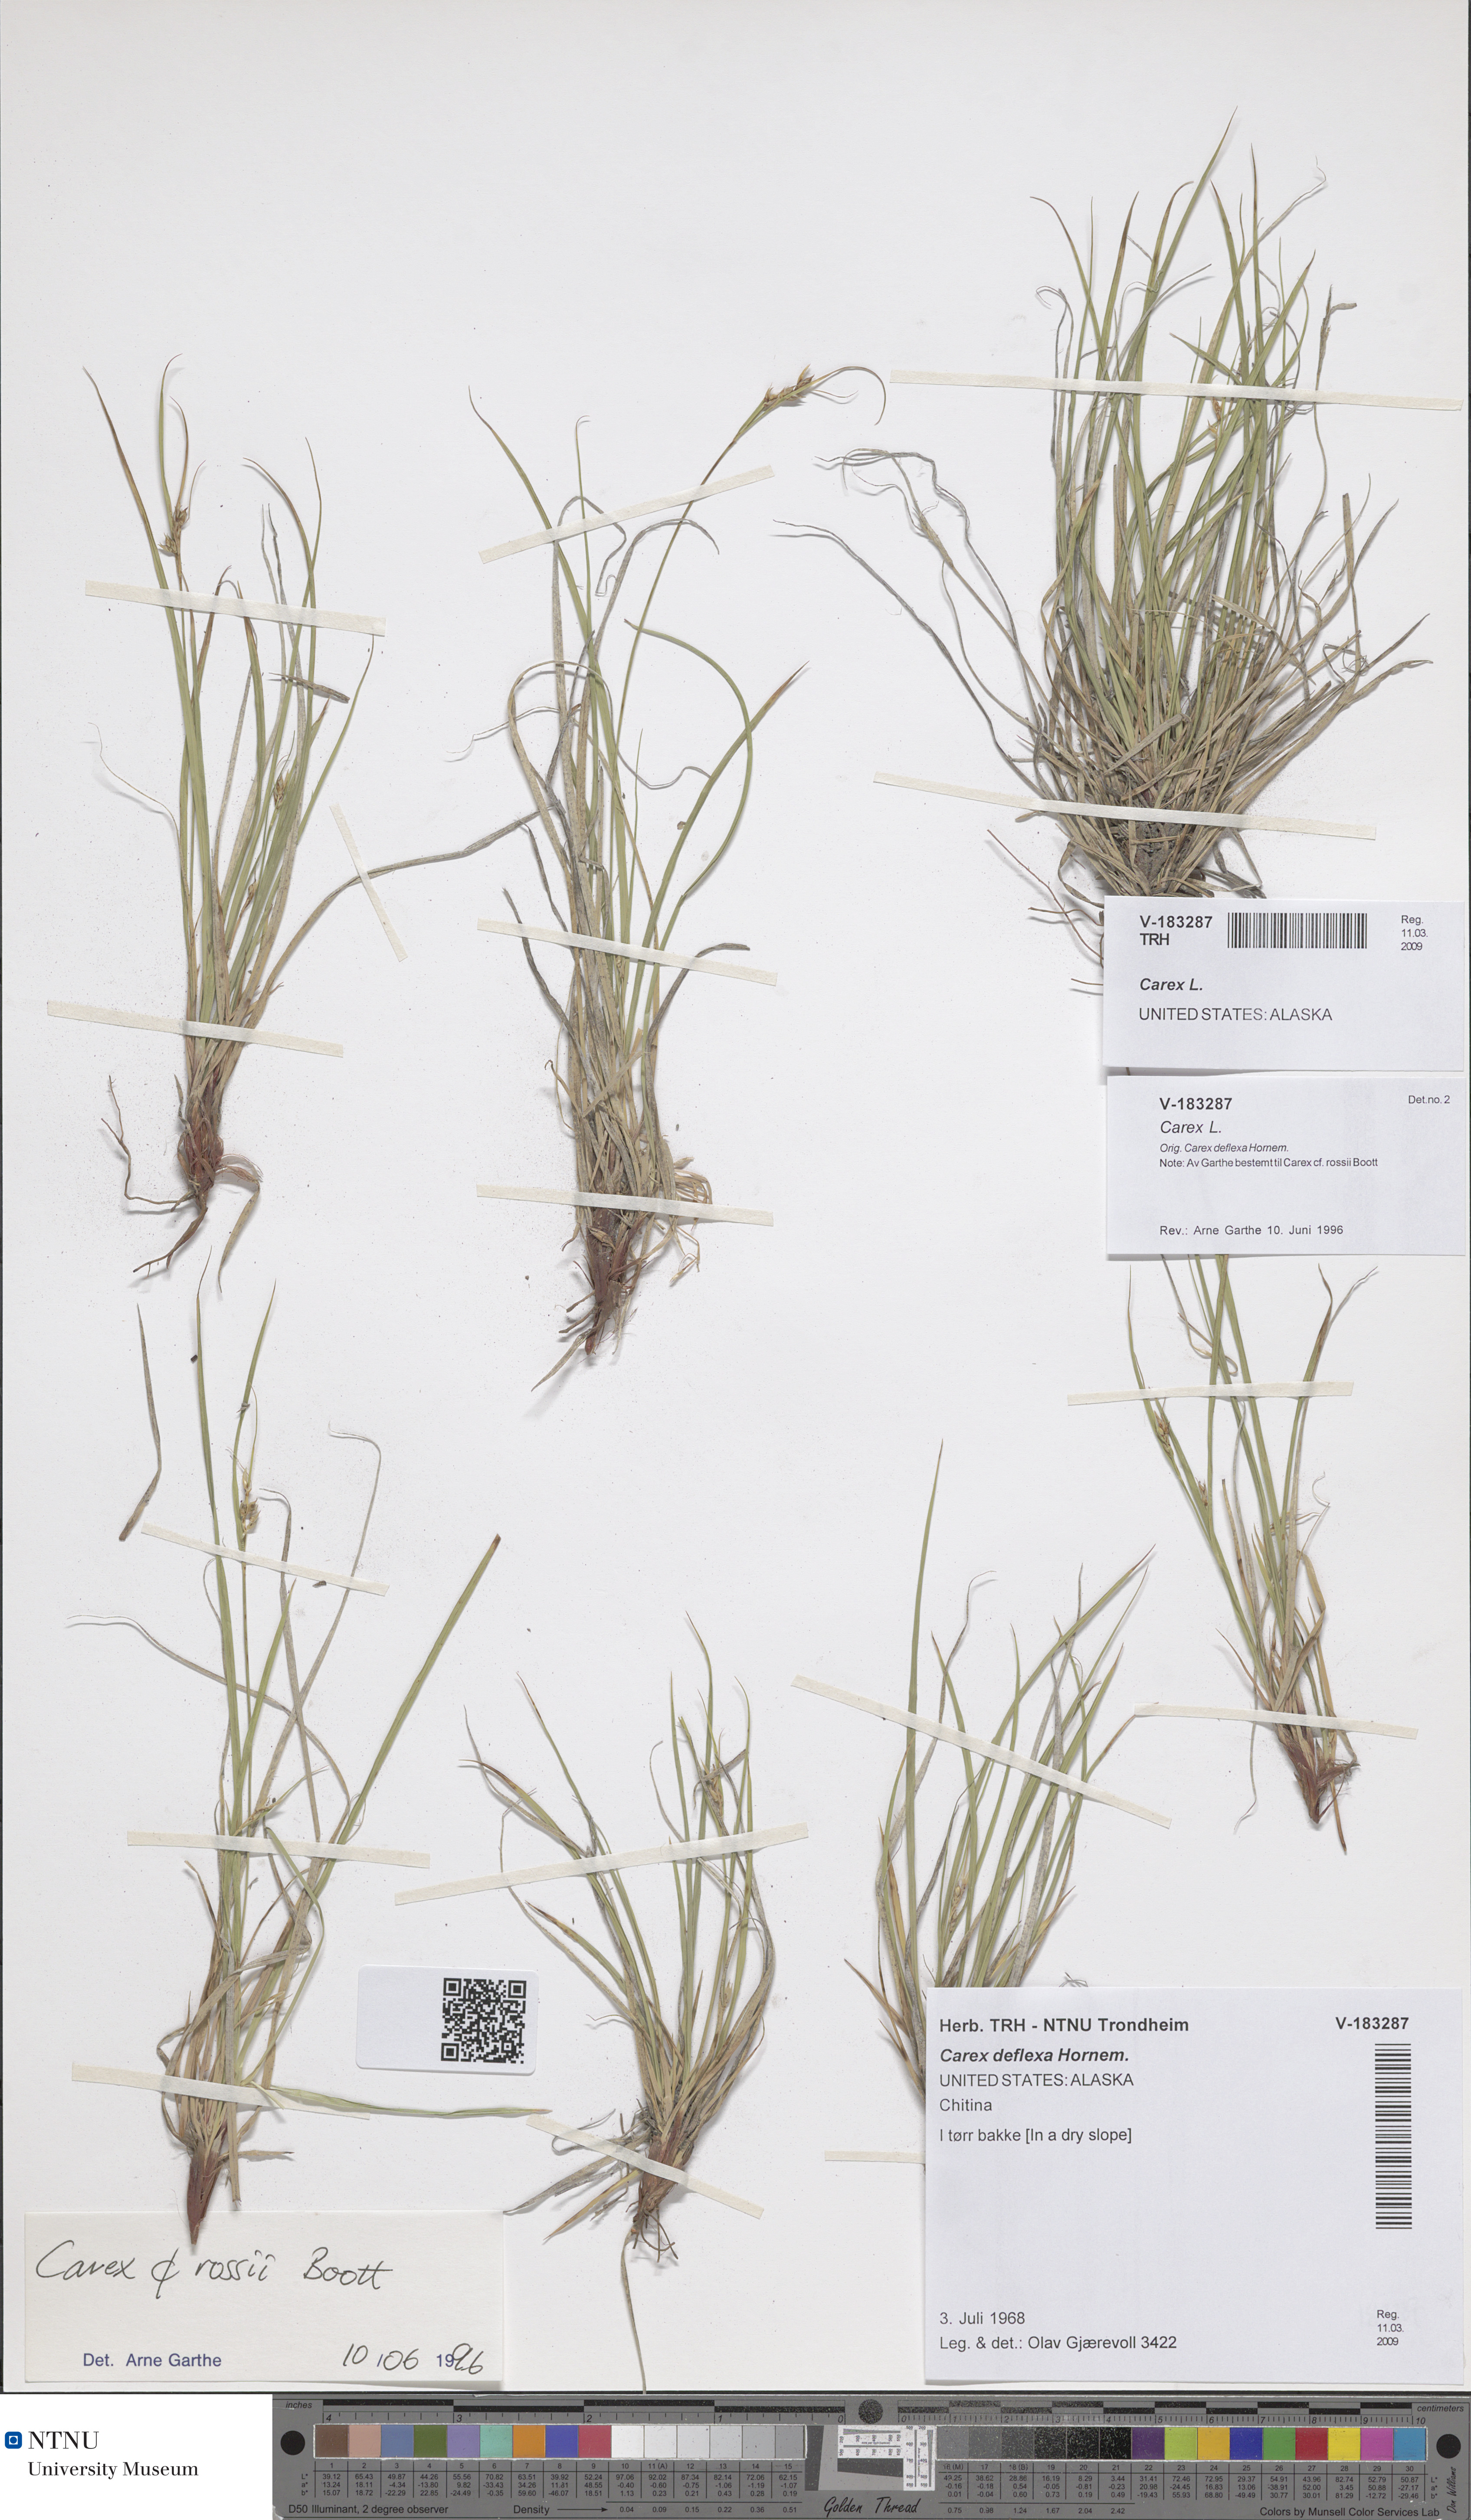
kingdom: Plantae
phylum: Tracheophyta
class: Liliopsida
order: Poales
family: Cyperaceae
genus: Carex
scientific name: Carex
